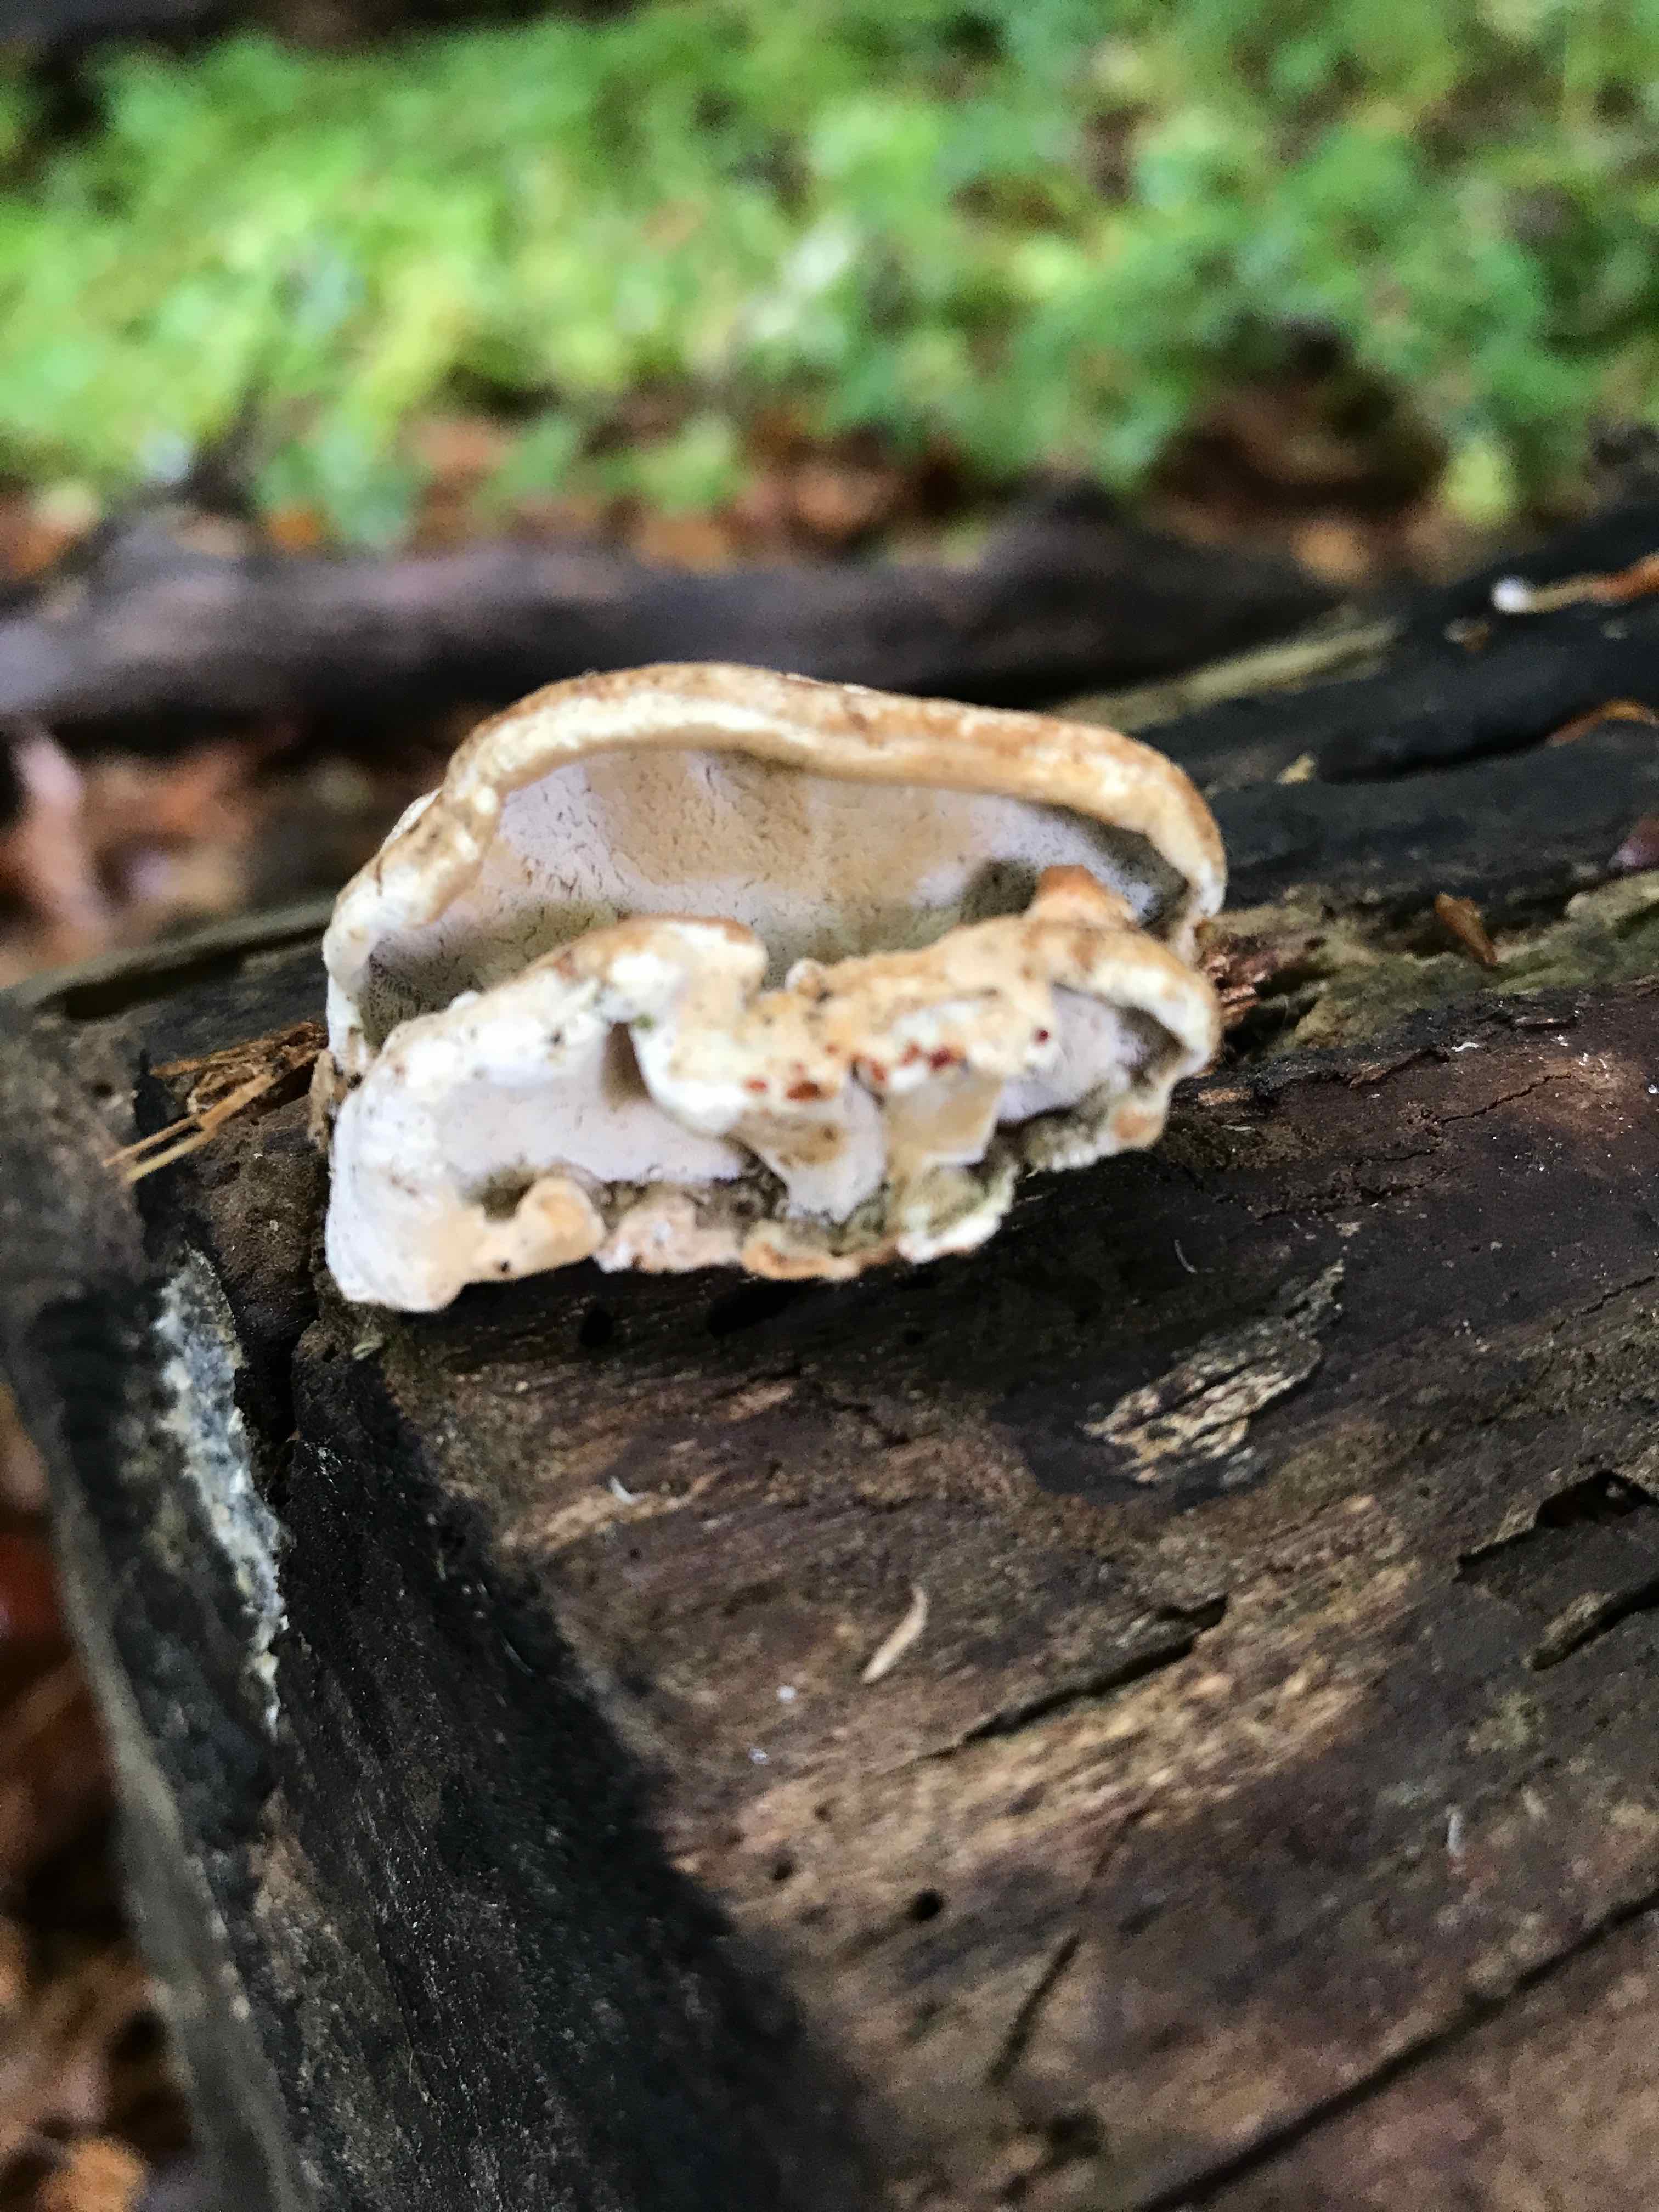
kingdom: Fungi
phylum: Basidiomycota
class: Agaricomycetes
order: Polyporales
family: Incrustoporiaceae
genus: Skeletocutis
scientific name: Skeletocutis nemoralis
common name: stor krystalporesvamp
